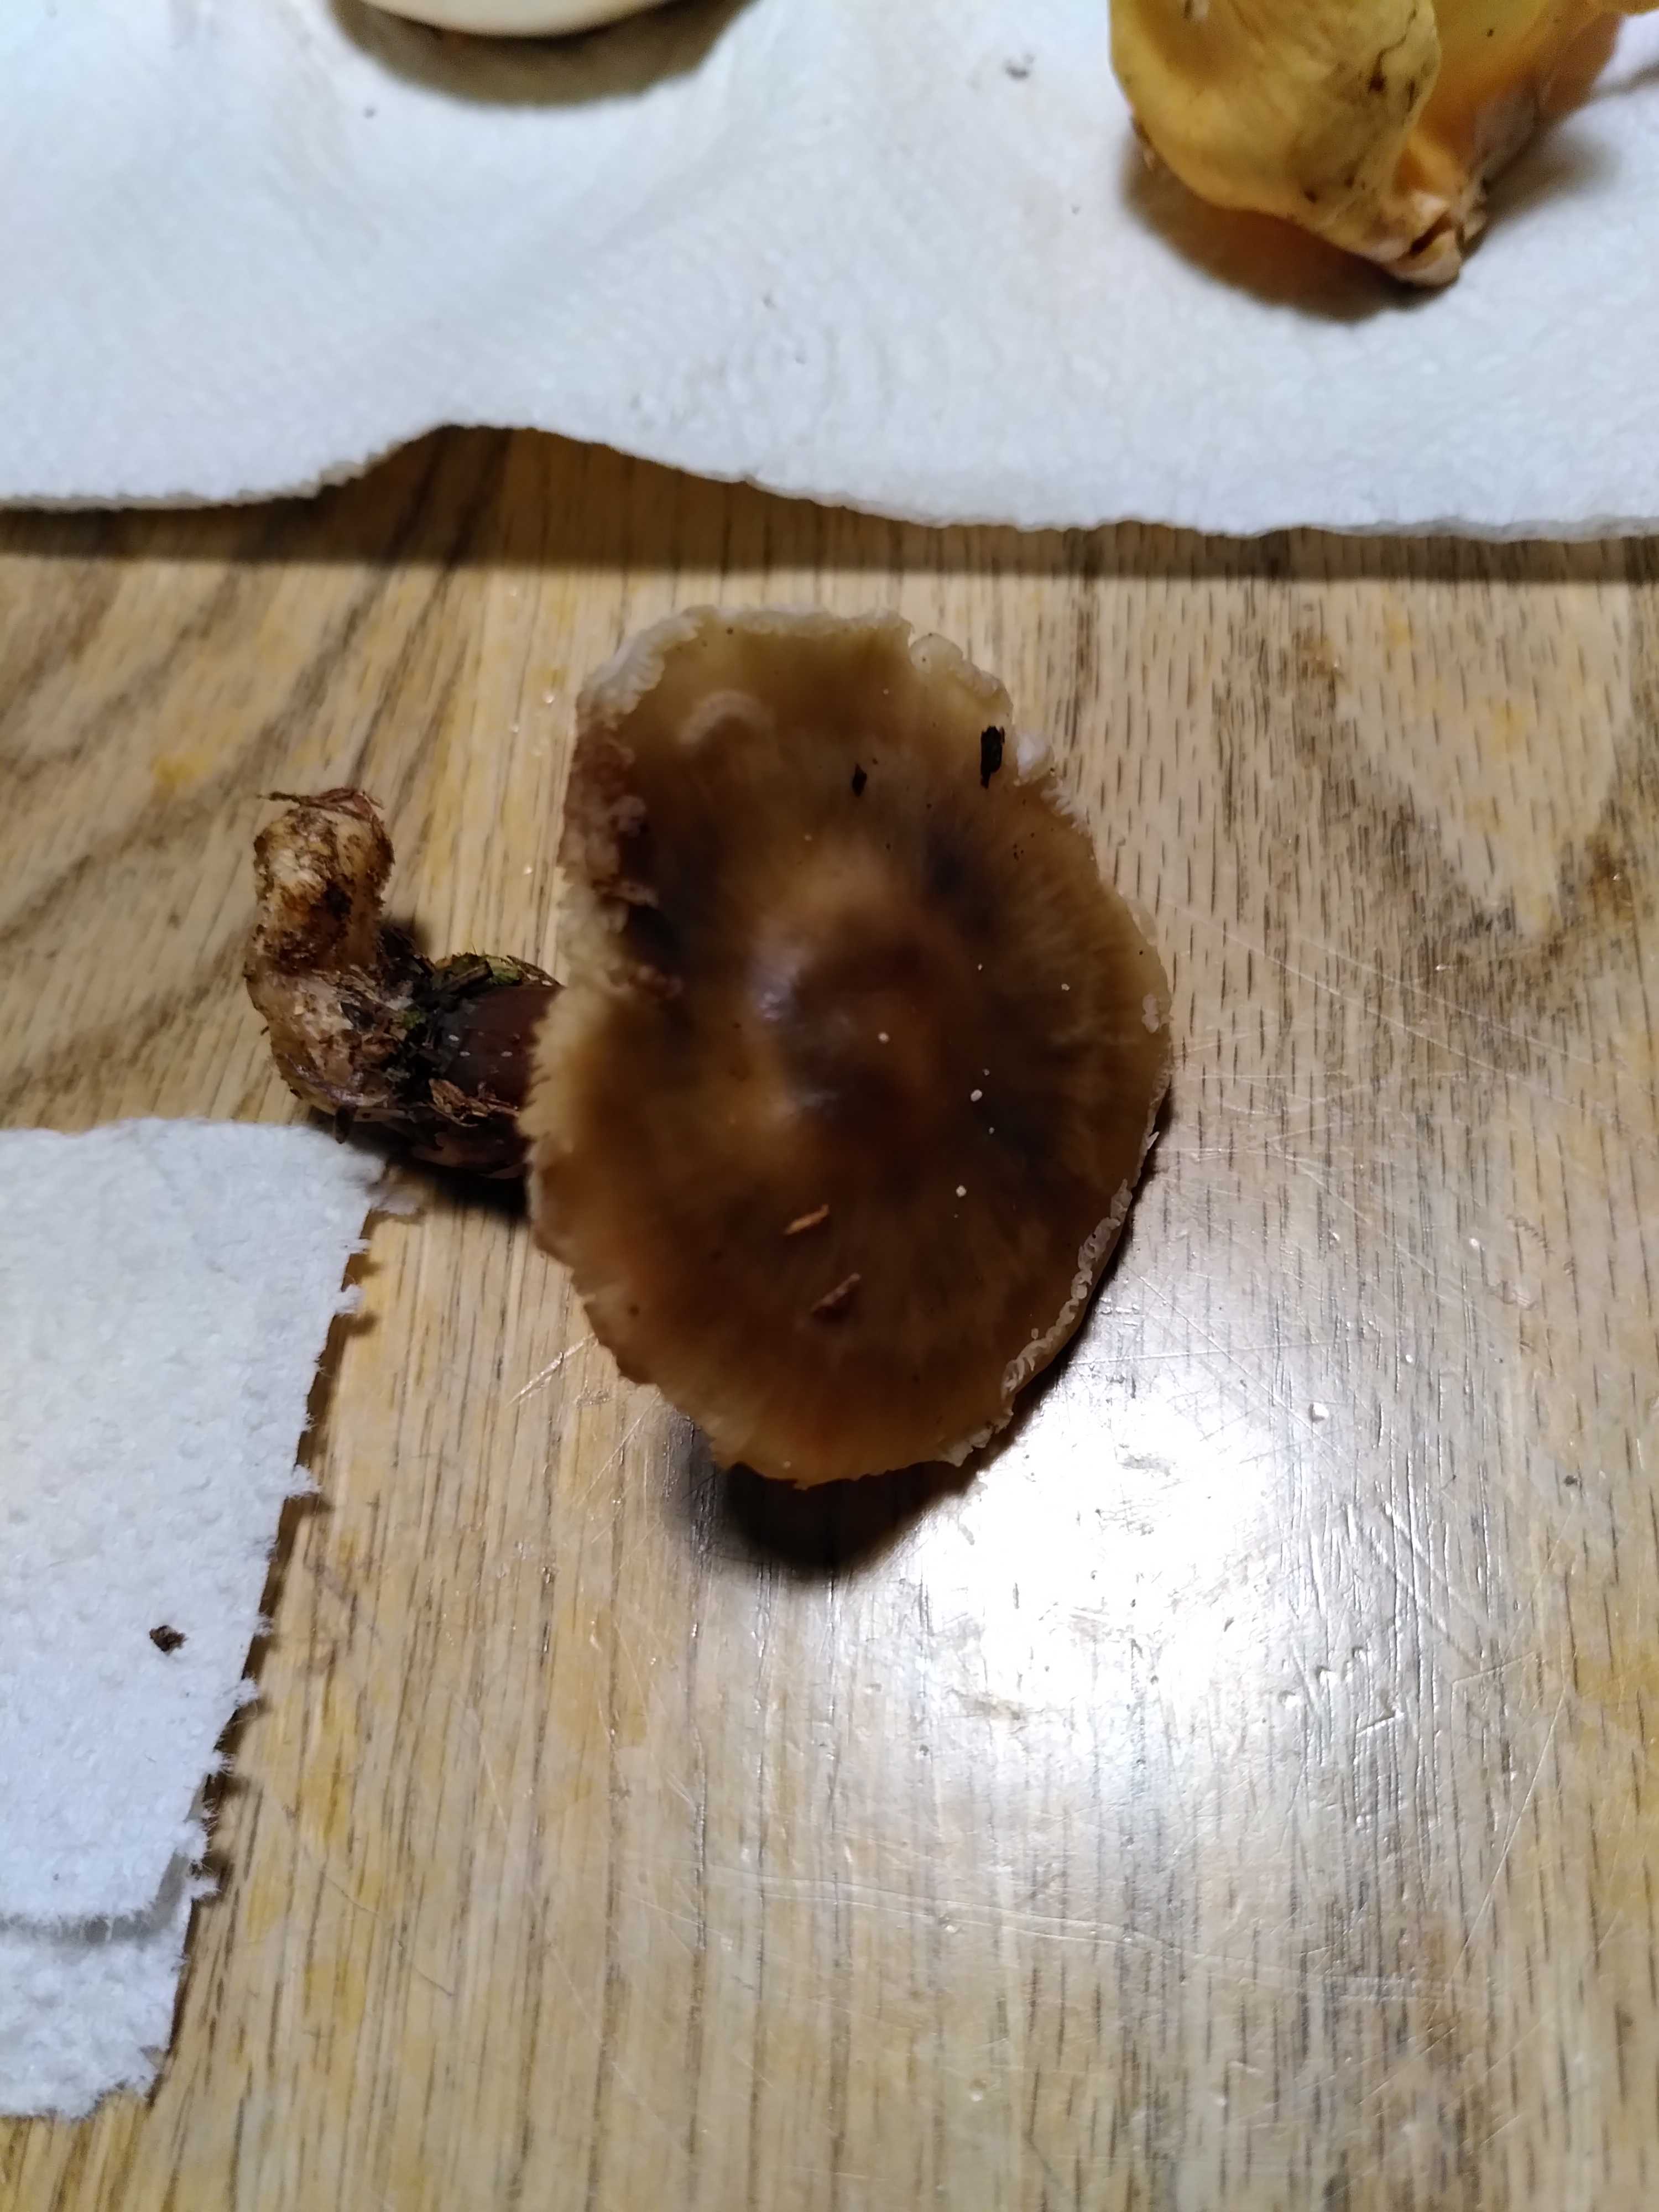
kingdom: Fungi
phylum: Basidiomycota
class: Agaricomycetes
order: Agaricales
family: Omphalotaceae
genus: Rhodocollybia
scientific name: Rhodocollybia asema
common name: horngrå fladhat
